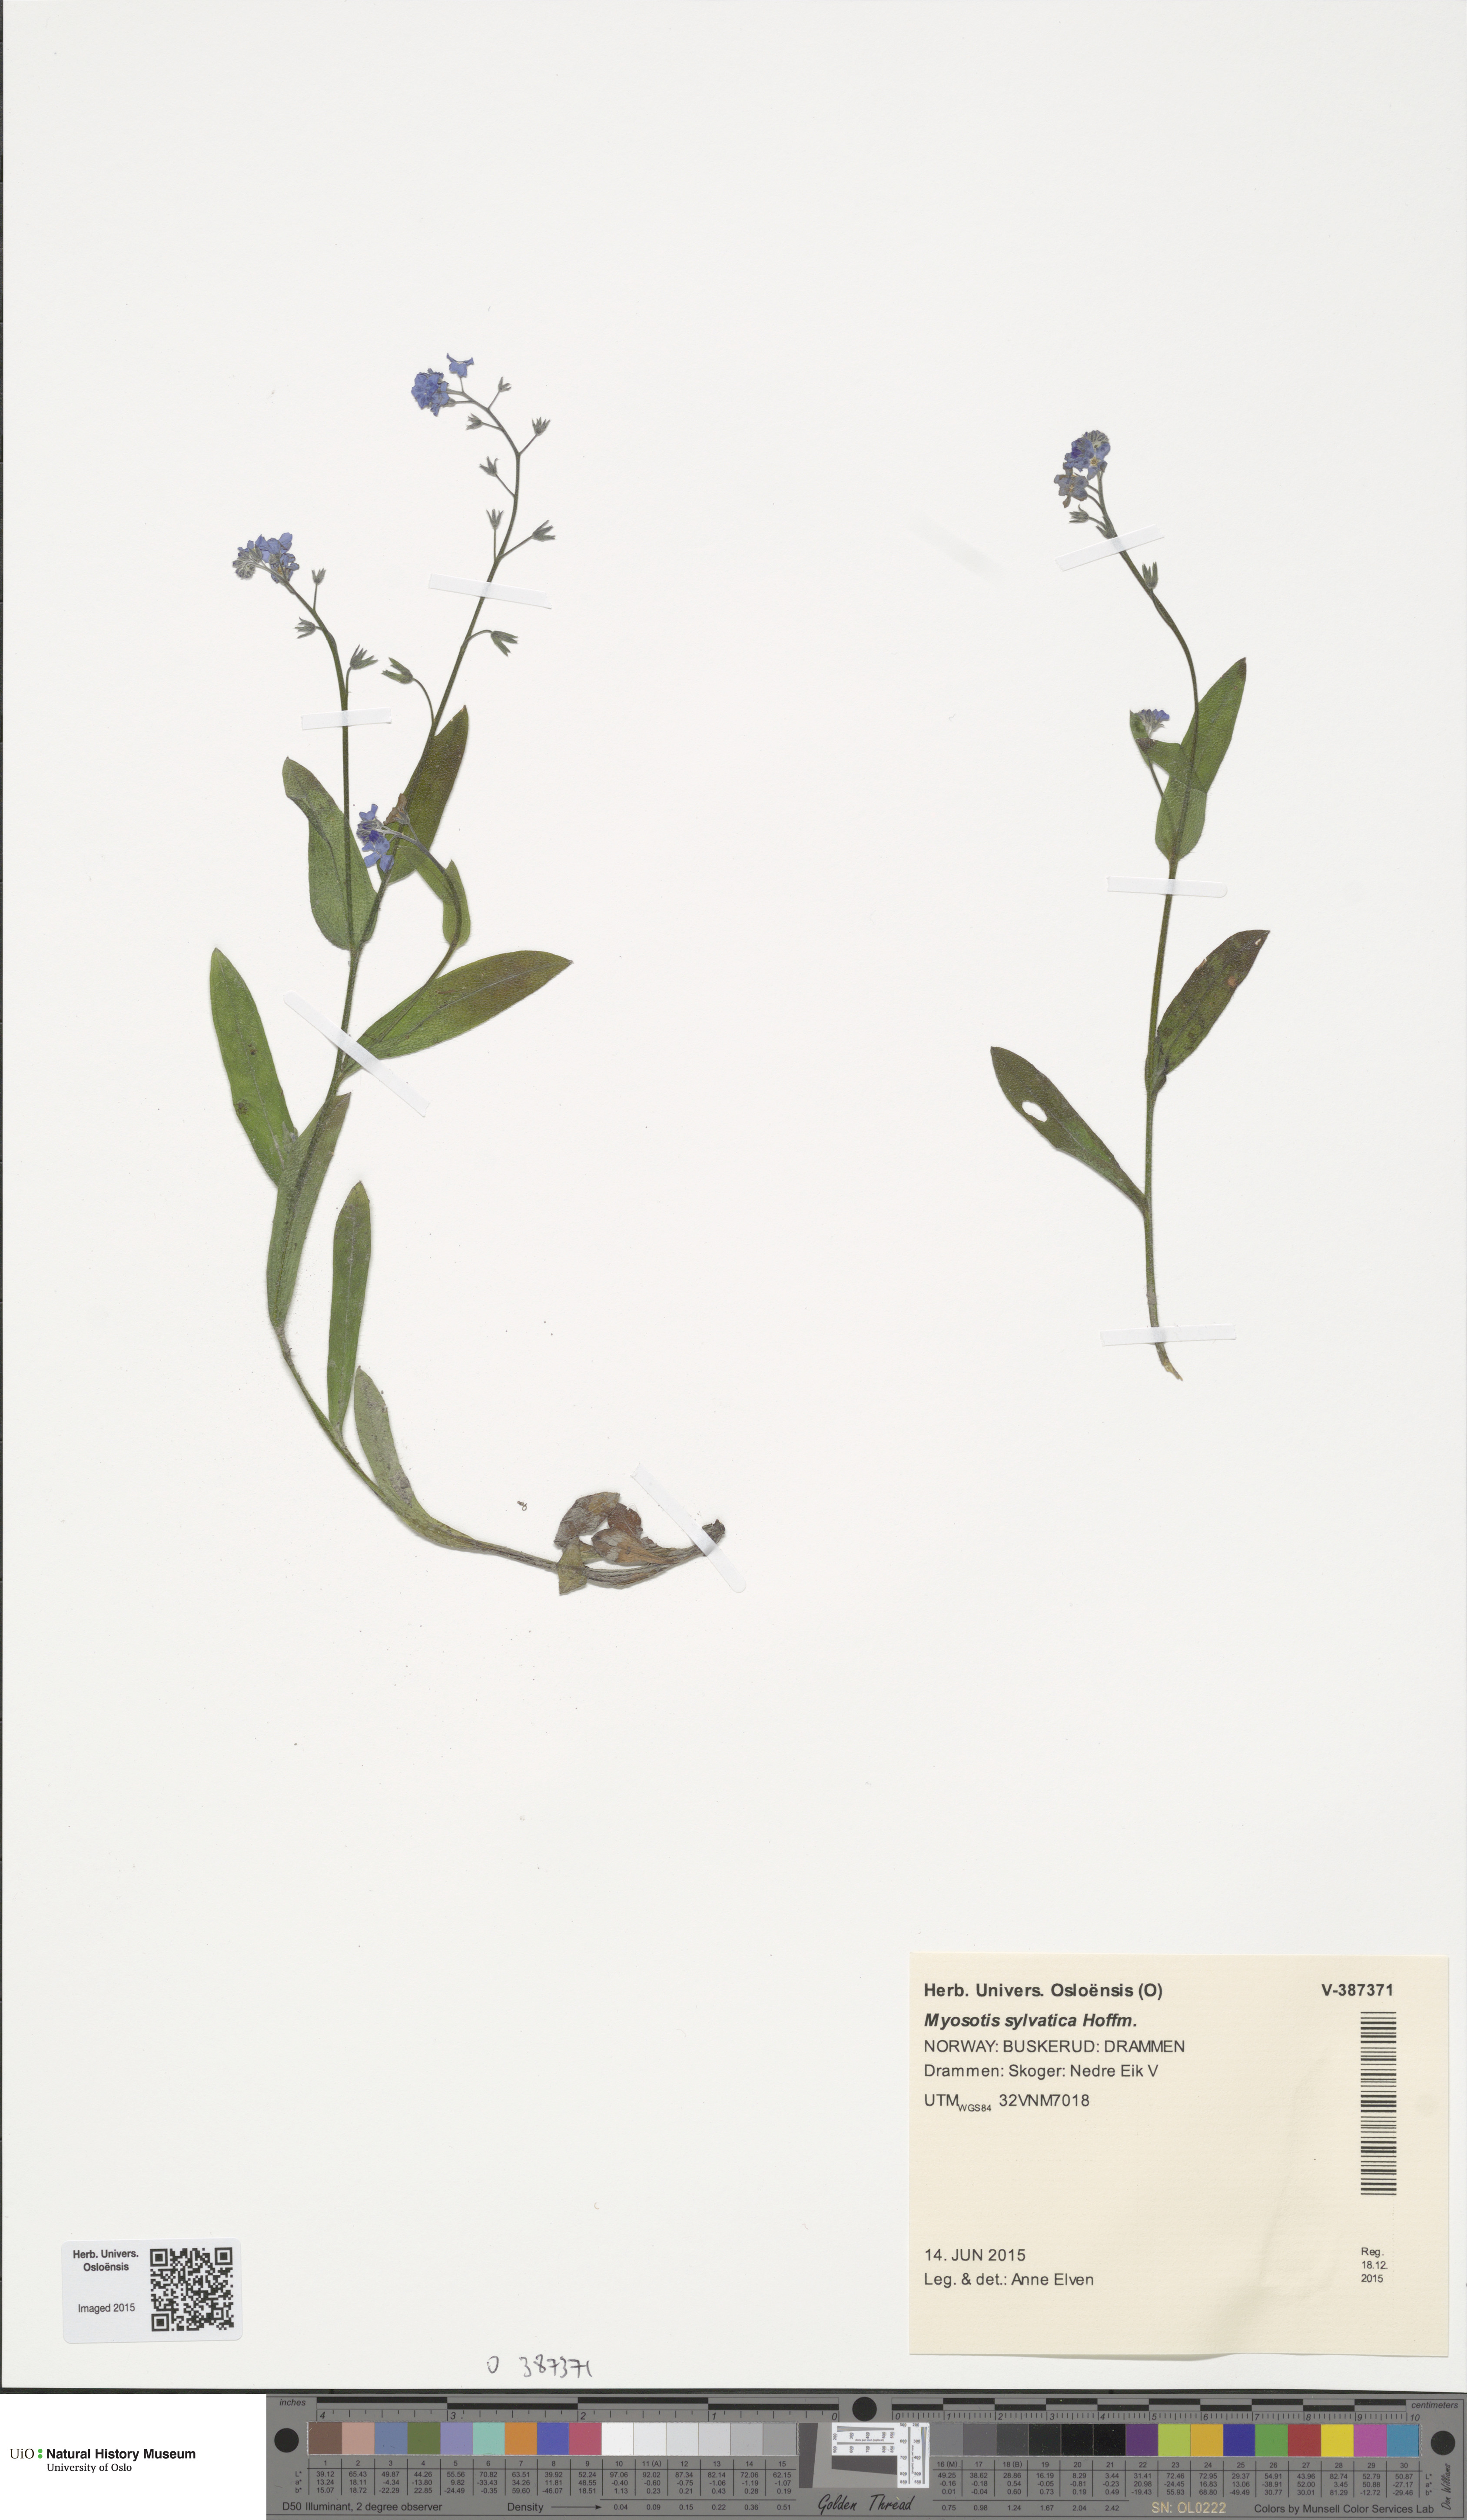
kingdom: Plantae
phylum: Tracheophyta
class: Magnoliopsida
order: Boraginales
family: Boraginaceae
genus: Myosotis
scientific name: Myosotis sylvatica
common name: Wood forget-me-not
